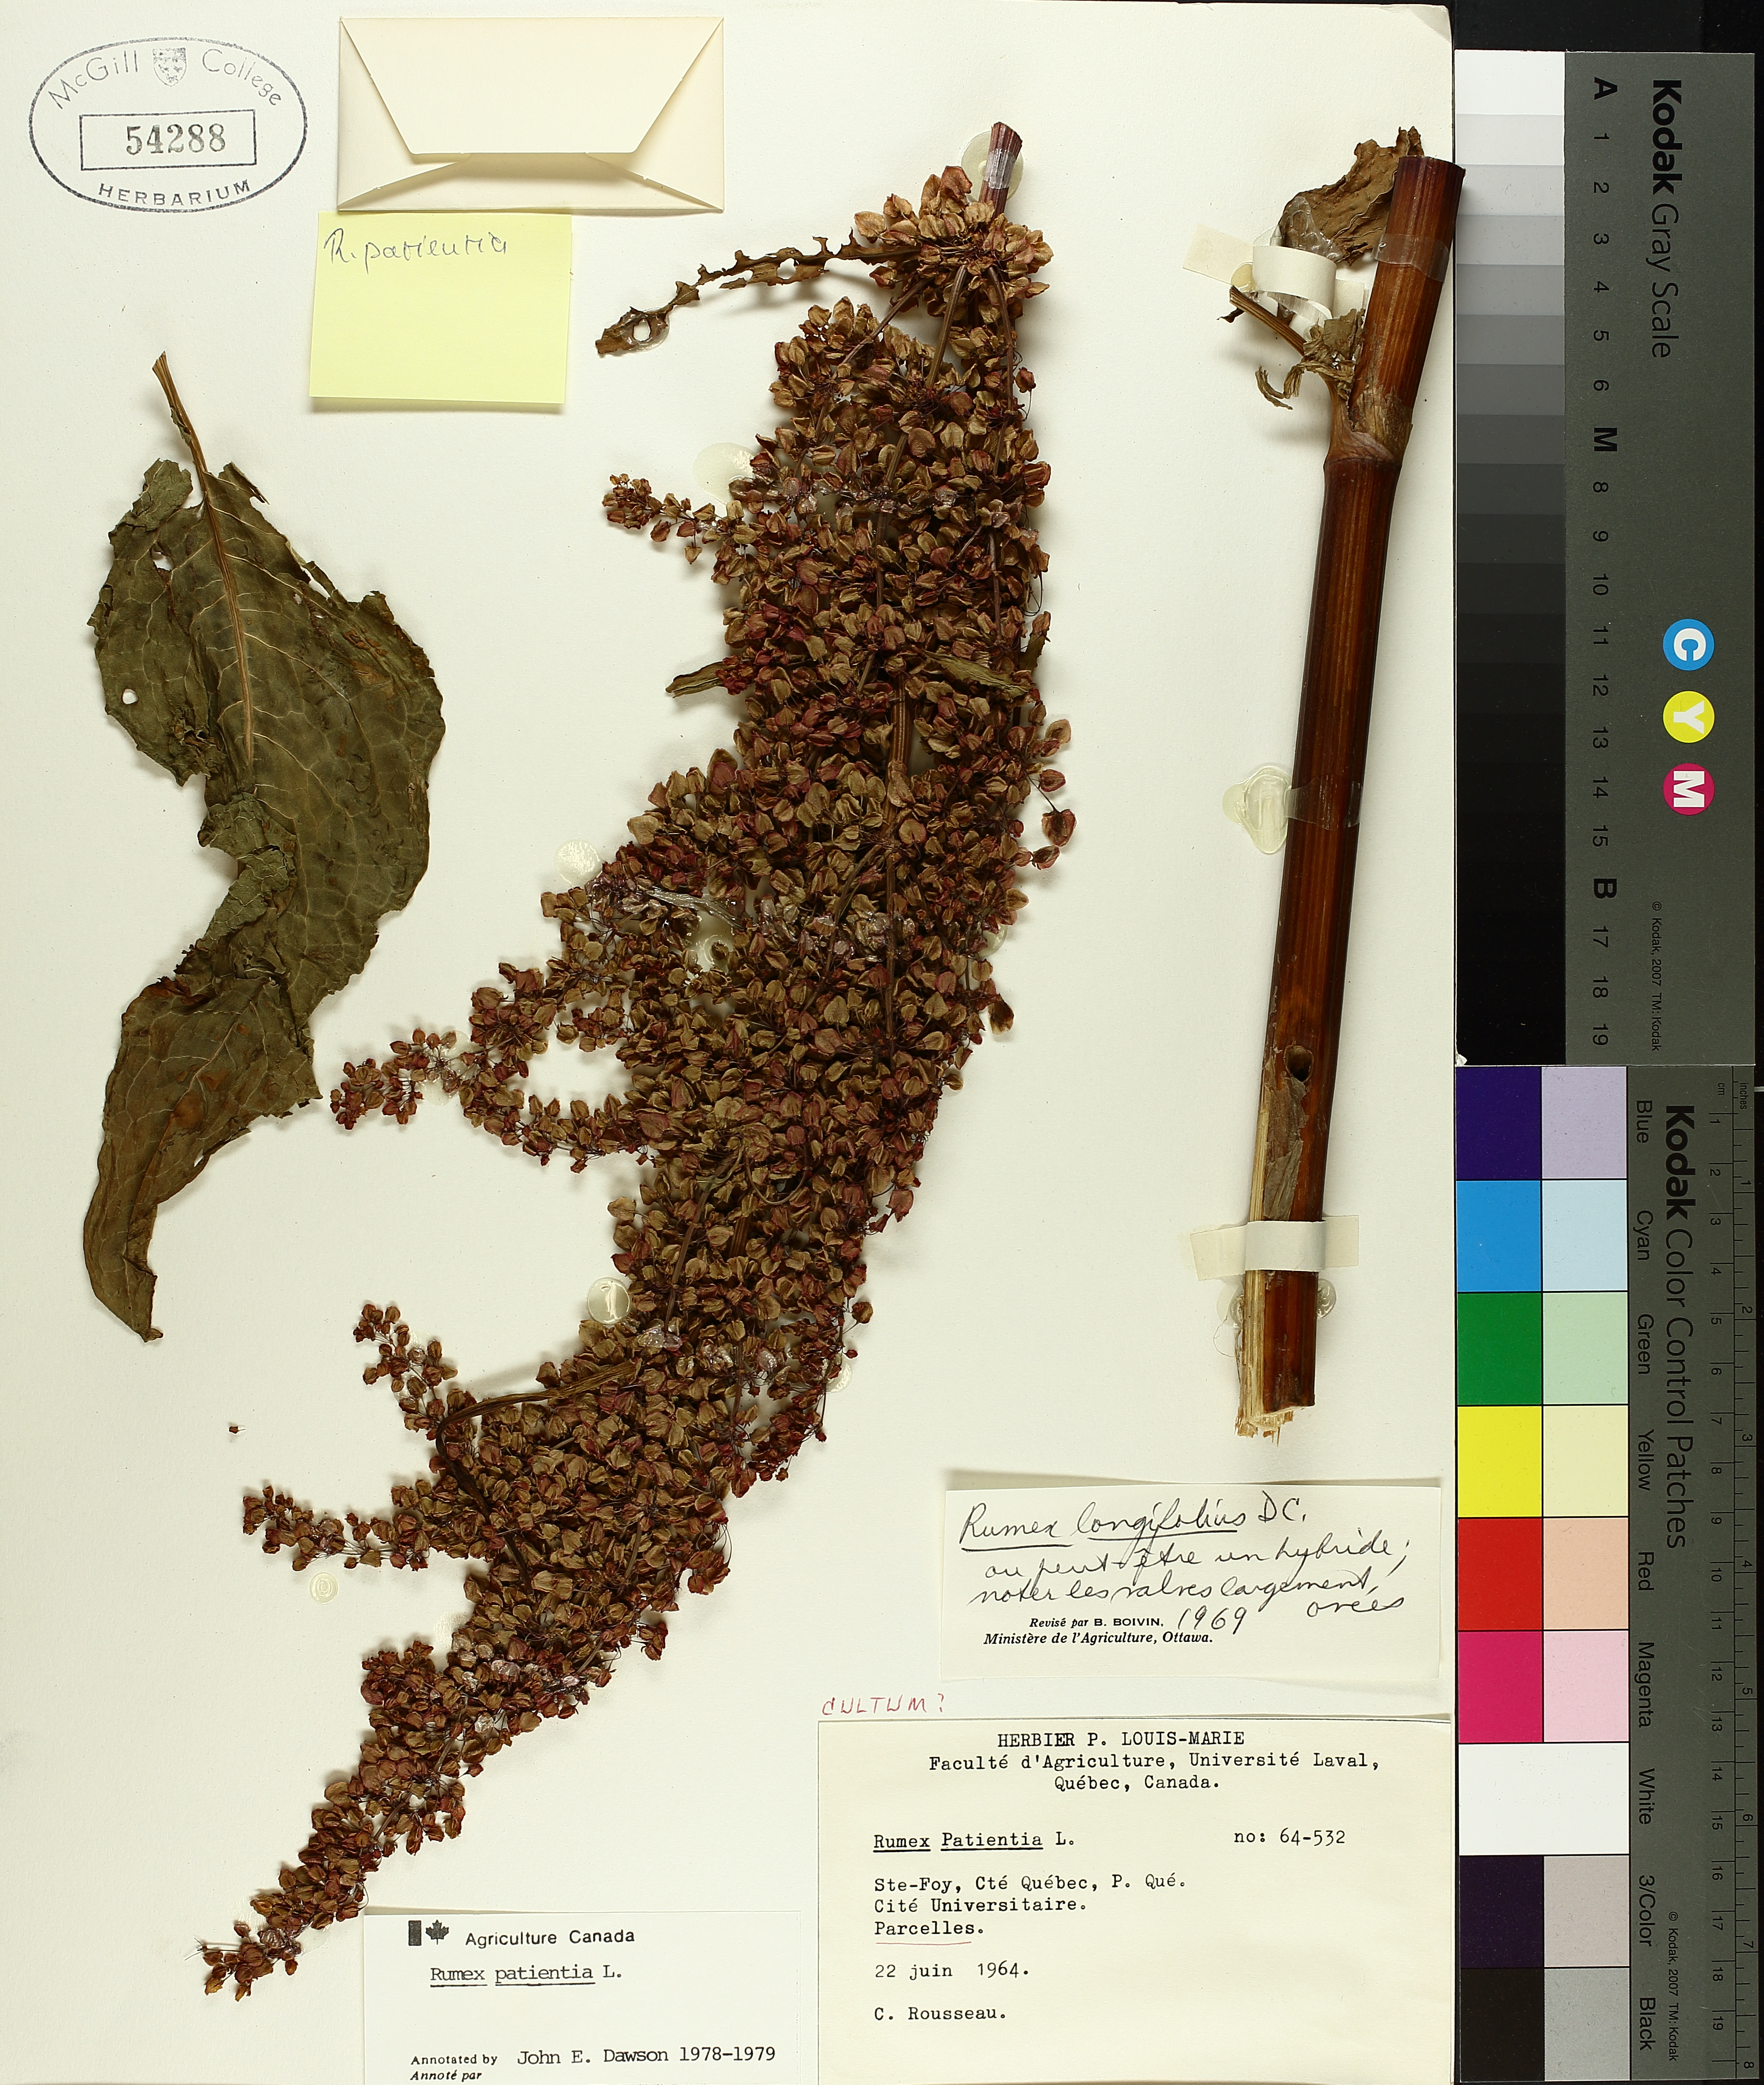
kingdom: Plantae
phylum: Tracheophyta
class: Magnoliopsida
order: Caryophyllales
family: Polygonaceae
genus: Rumex
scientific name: Rumex patientia
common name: Patience dock
